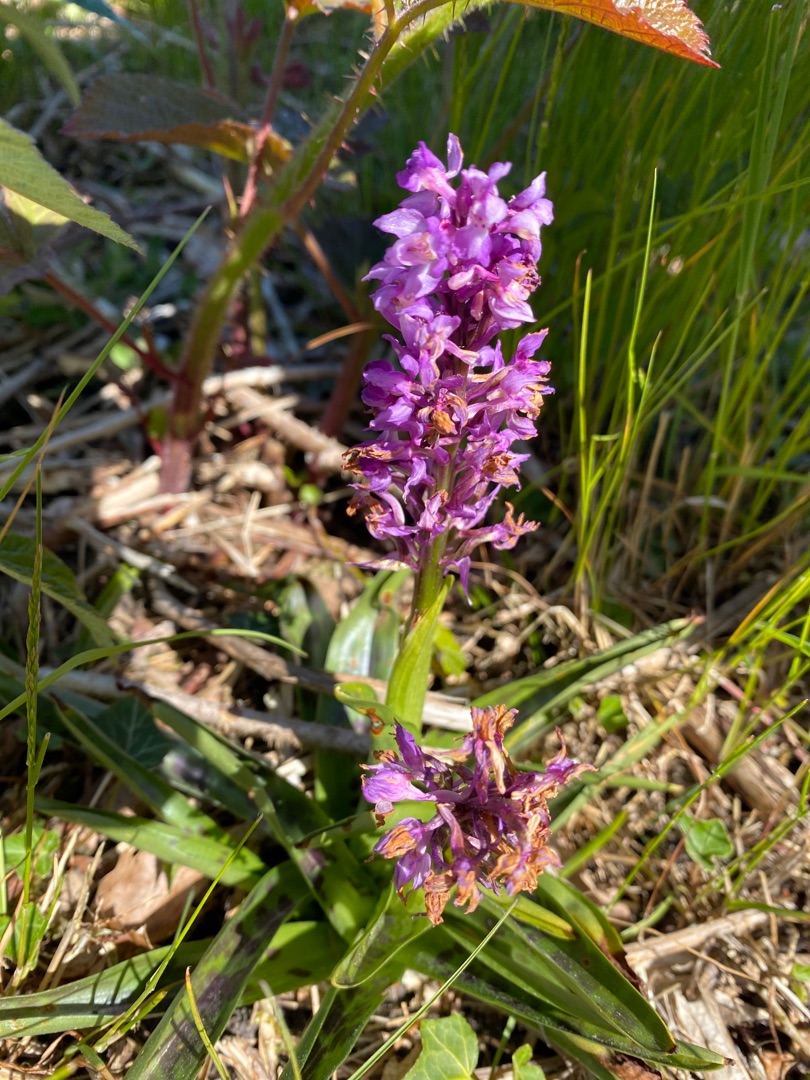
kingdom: Plantae
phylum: Tracheophyta
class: Liliopsida
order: Asparagales
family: Orchidaceae
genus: Orchis
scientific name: Orchis mascula
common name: Tyndakset gøgeurt
